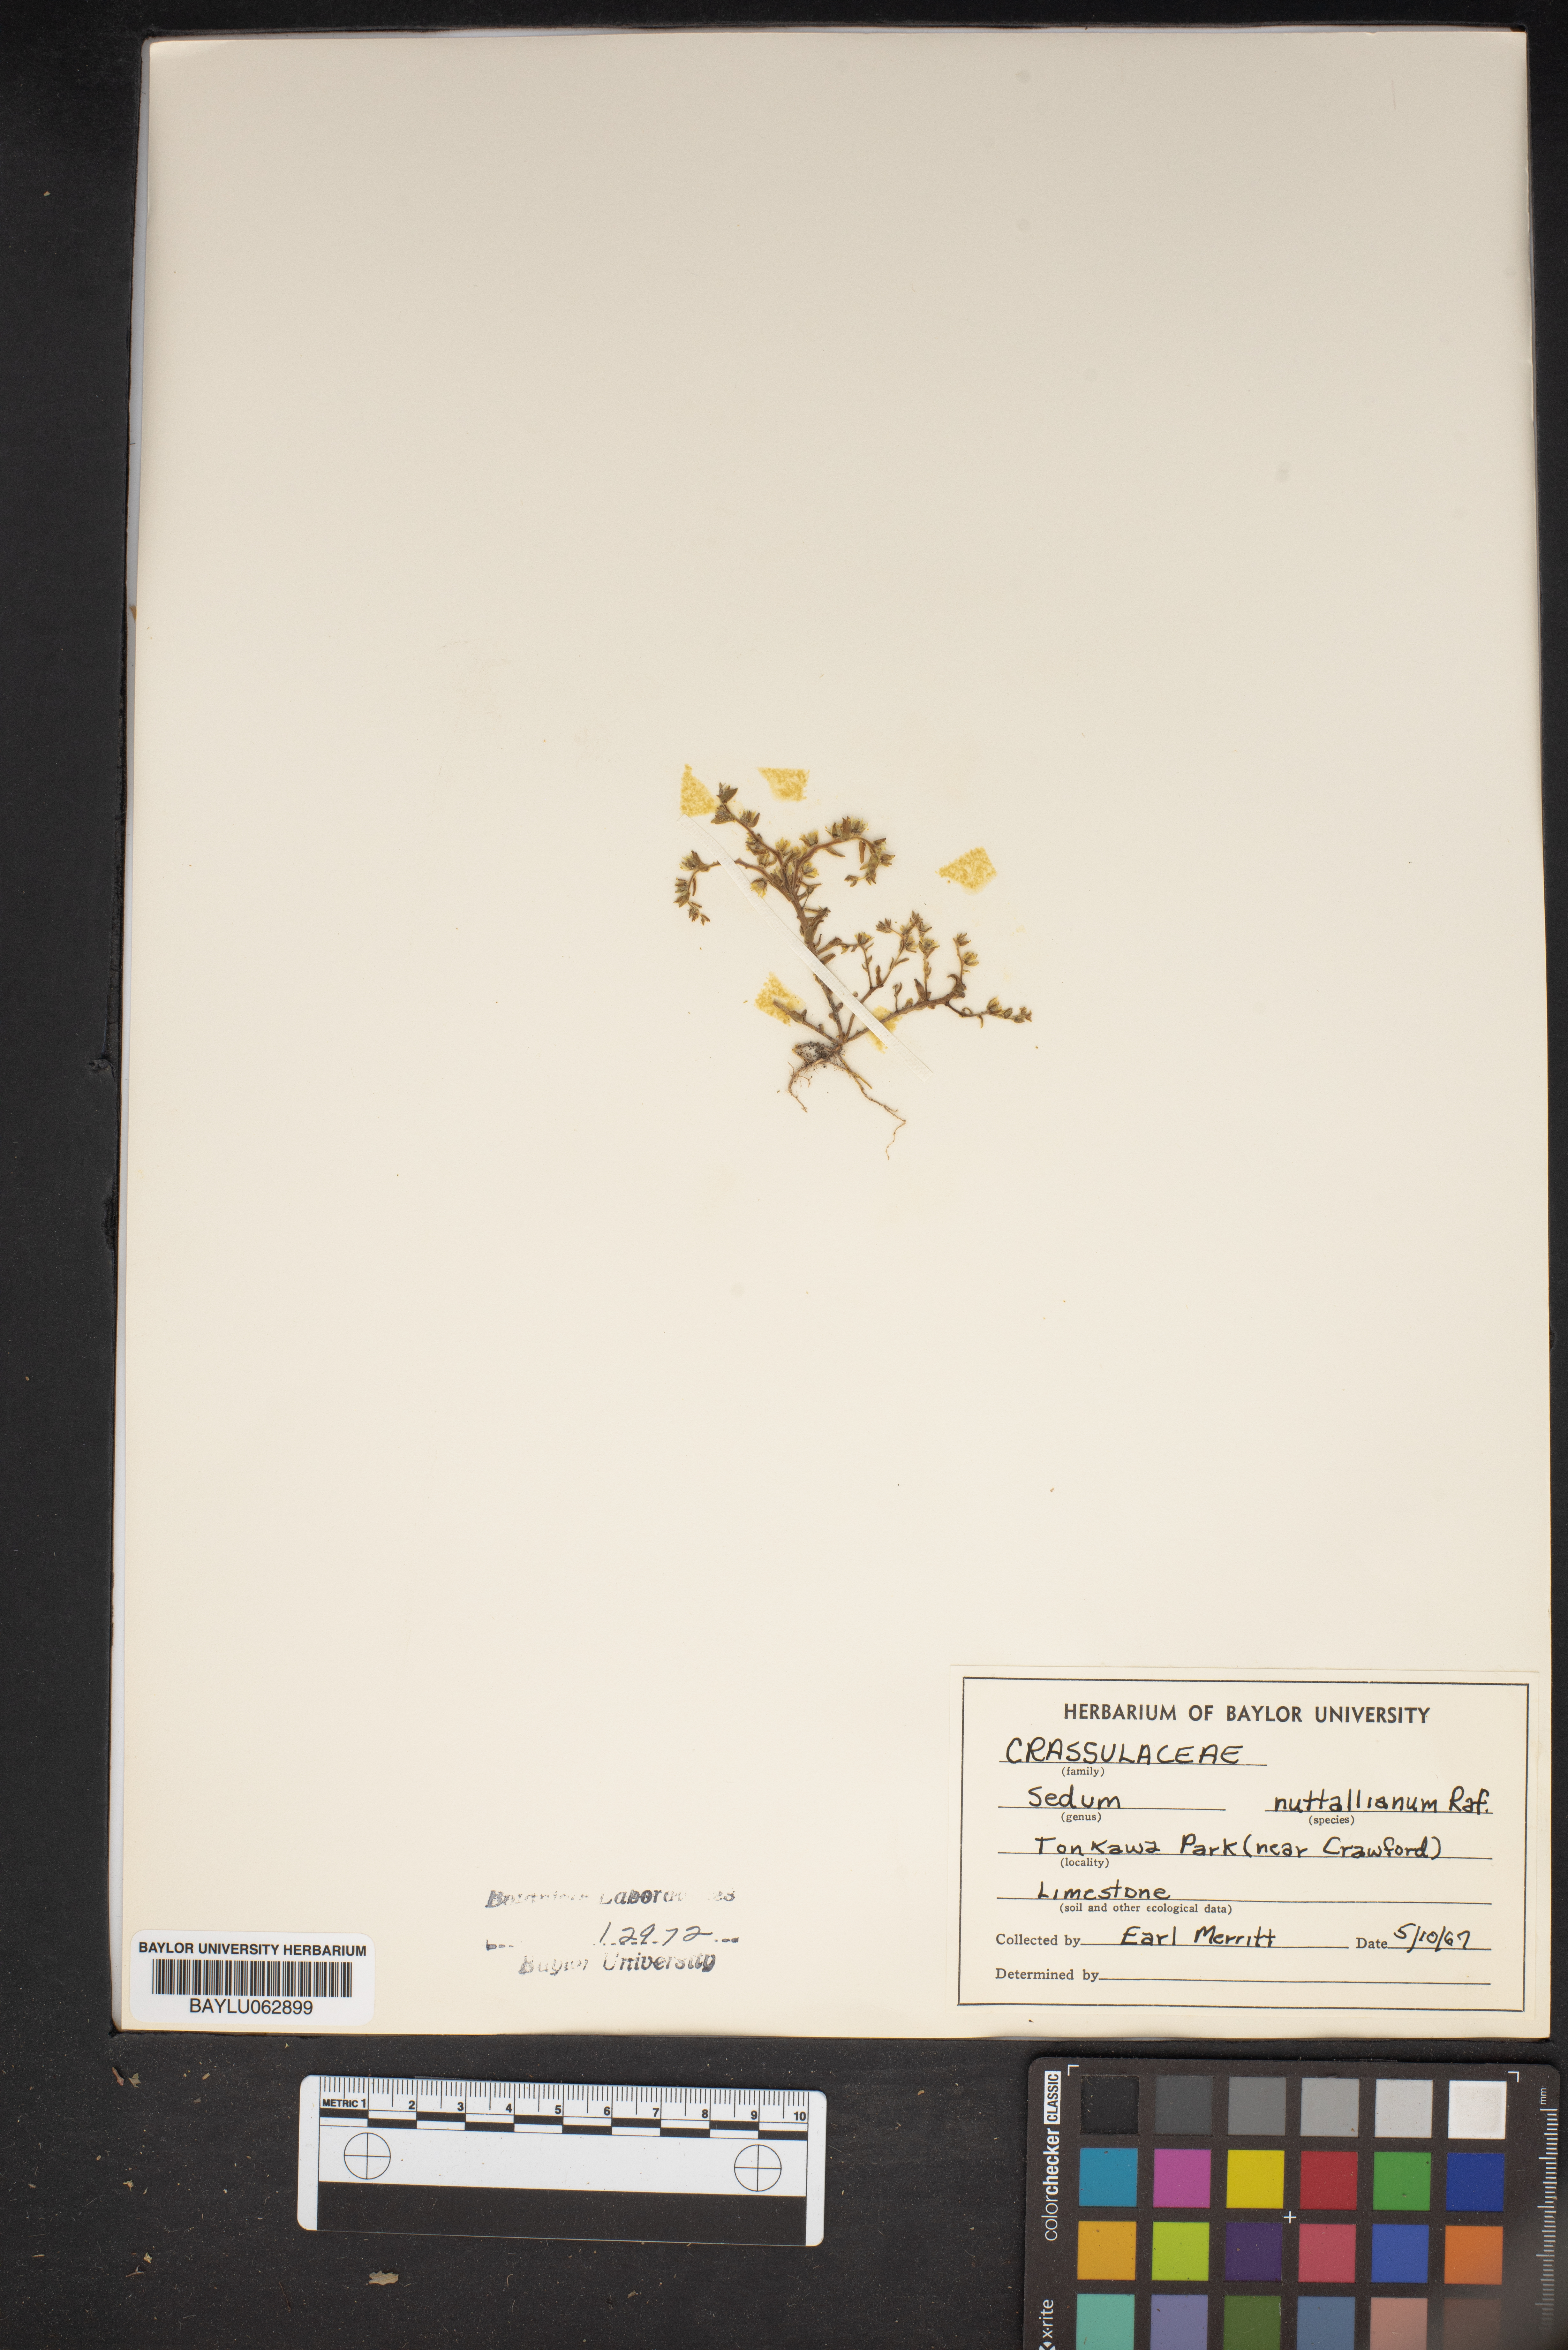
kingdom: Plantae
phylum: Tracheophyta
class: Magnoliopsida
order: Saxifragales
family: Crassulaceae
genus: Sedum
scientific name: Sedum nuttallii
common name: Yellow stonecrop
